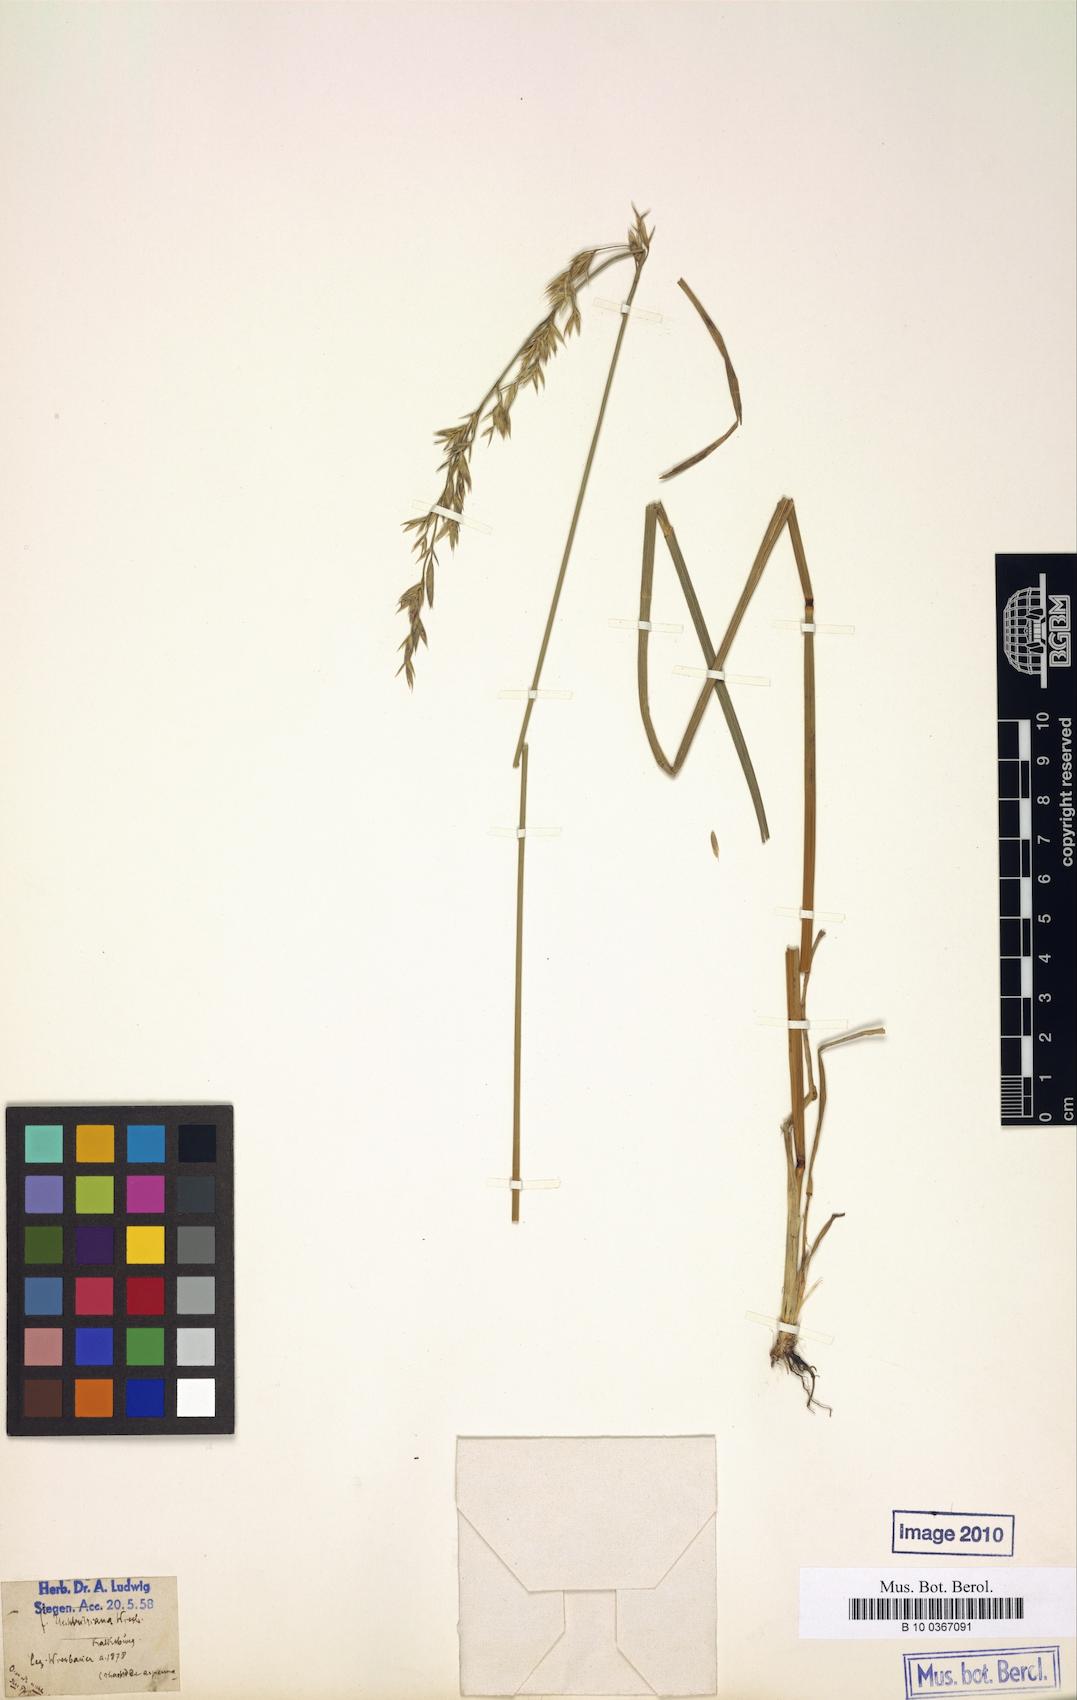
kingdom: Plantae
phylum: Tracheophyta
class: Liliopsida
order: Poales
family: Poaceae
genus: Lolium
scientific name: Lolium arundinaceum
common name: Reed fescue
